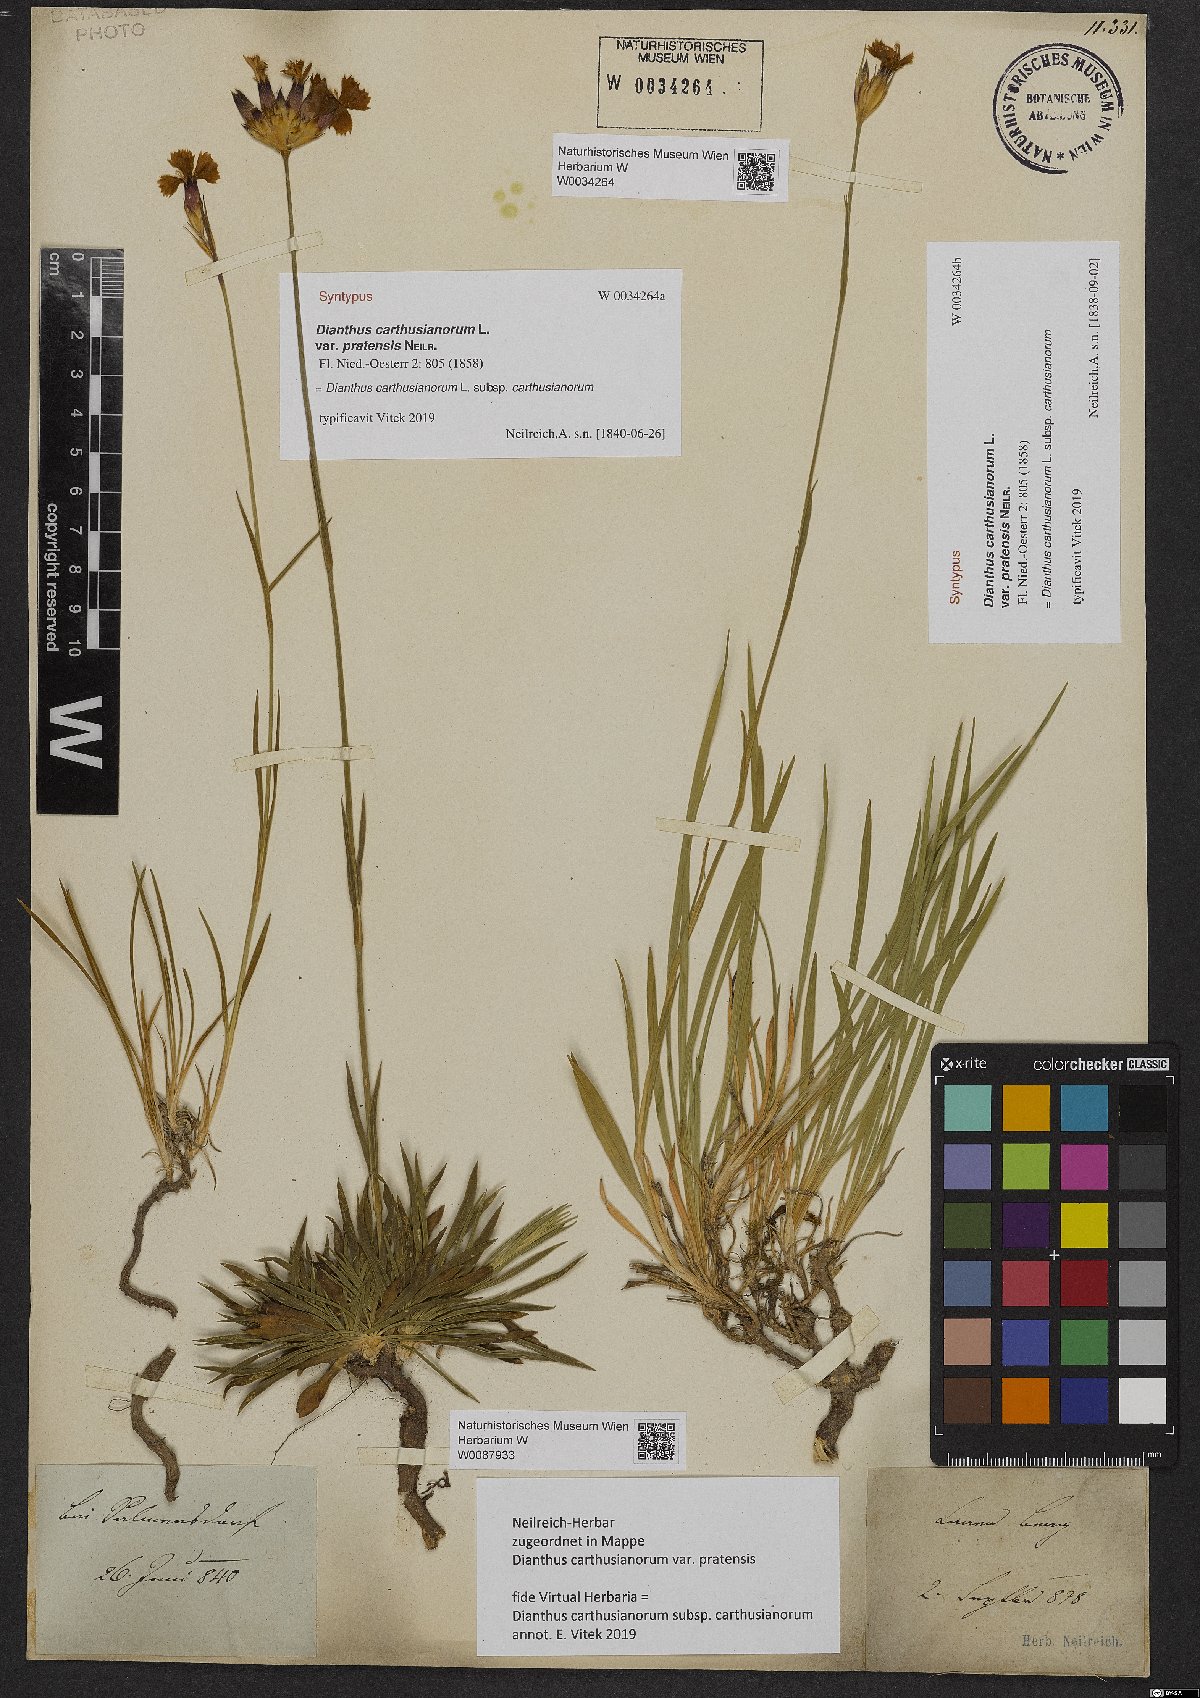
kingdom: Plantae
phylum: Tracheophyta
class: Magnoliopsida
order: Caryophyllales
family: Caryophyllaceae
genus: Dianthus
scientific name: Dianthus carthusianorum
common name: Carthusian pink
